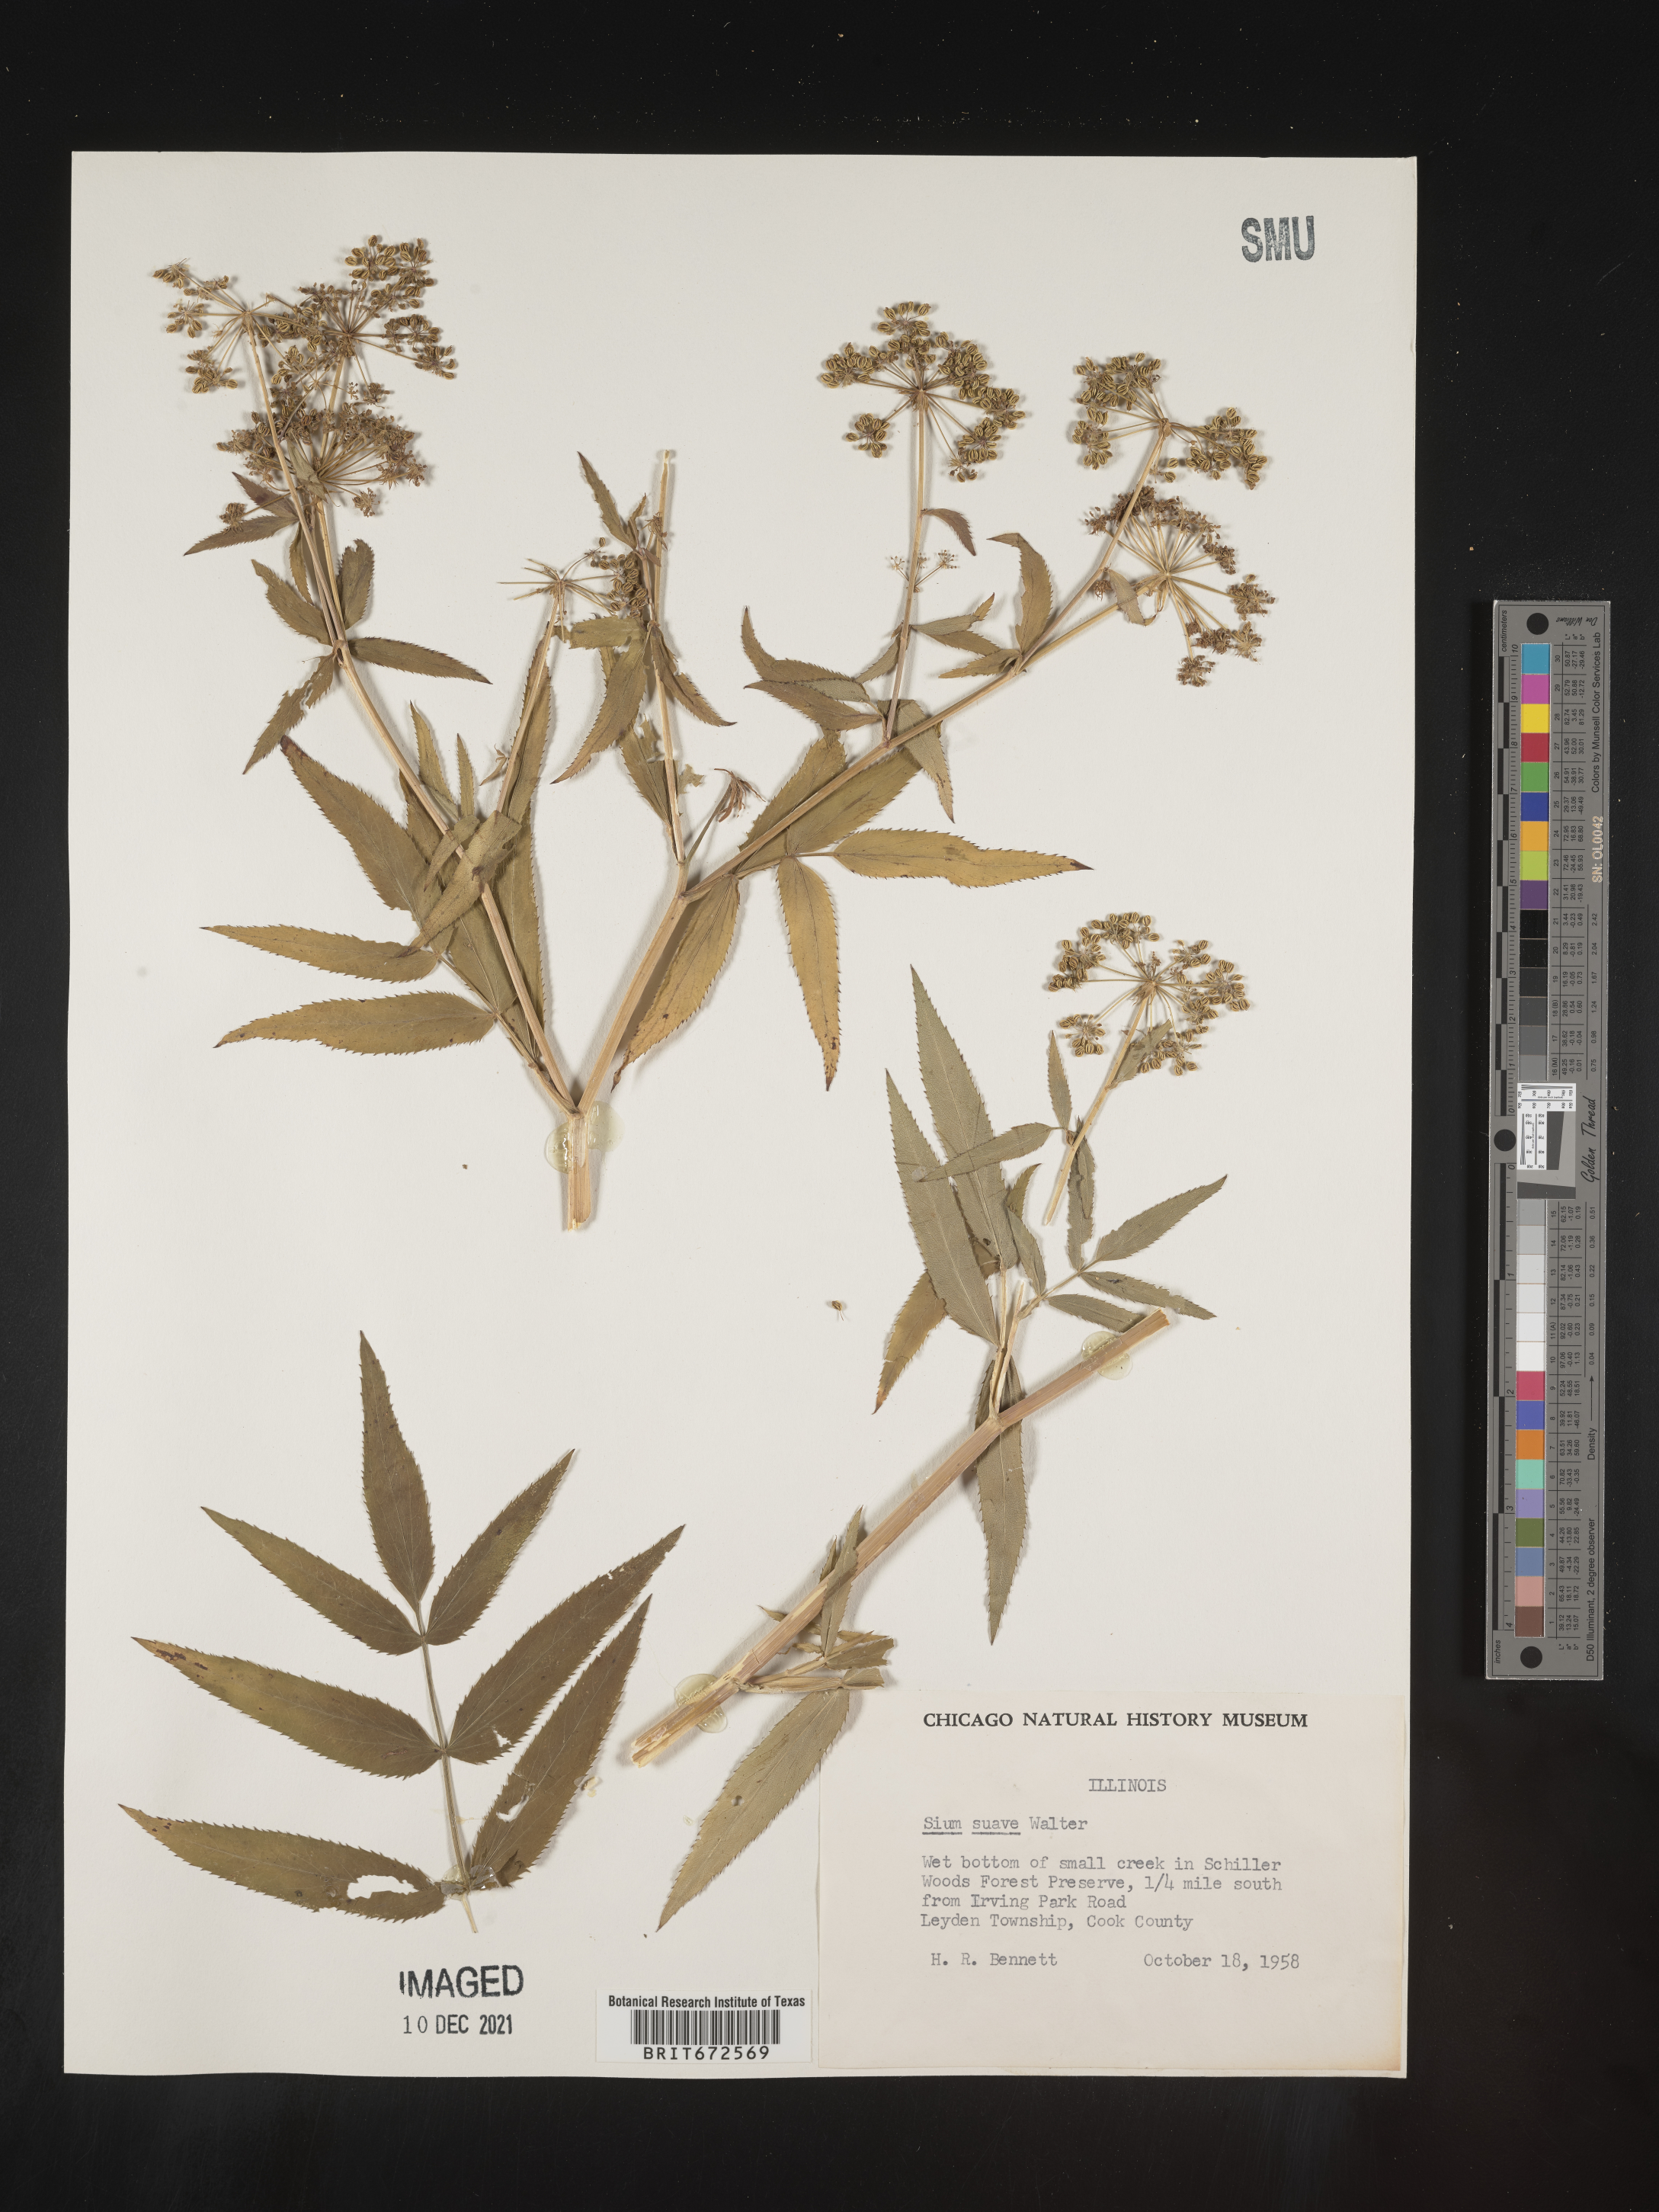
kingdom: Plantae
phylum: Tracheophyta
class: Magnoliopsida
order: Apiales
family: Apiaceae
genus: Sium
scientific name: Sium suave
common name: Hemlock water-parsnip
